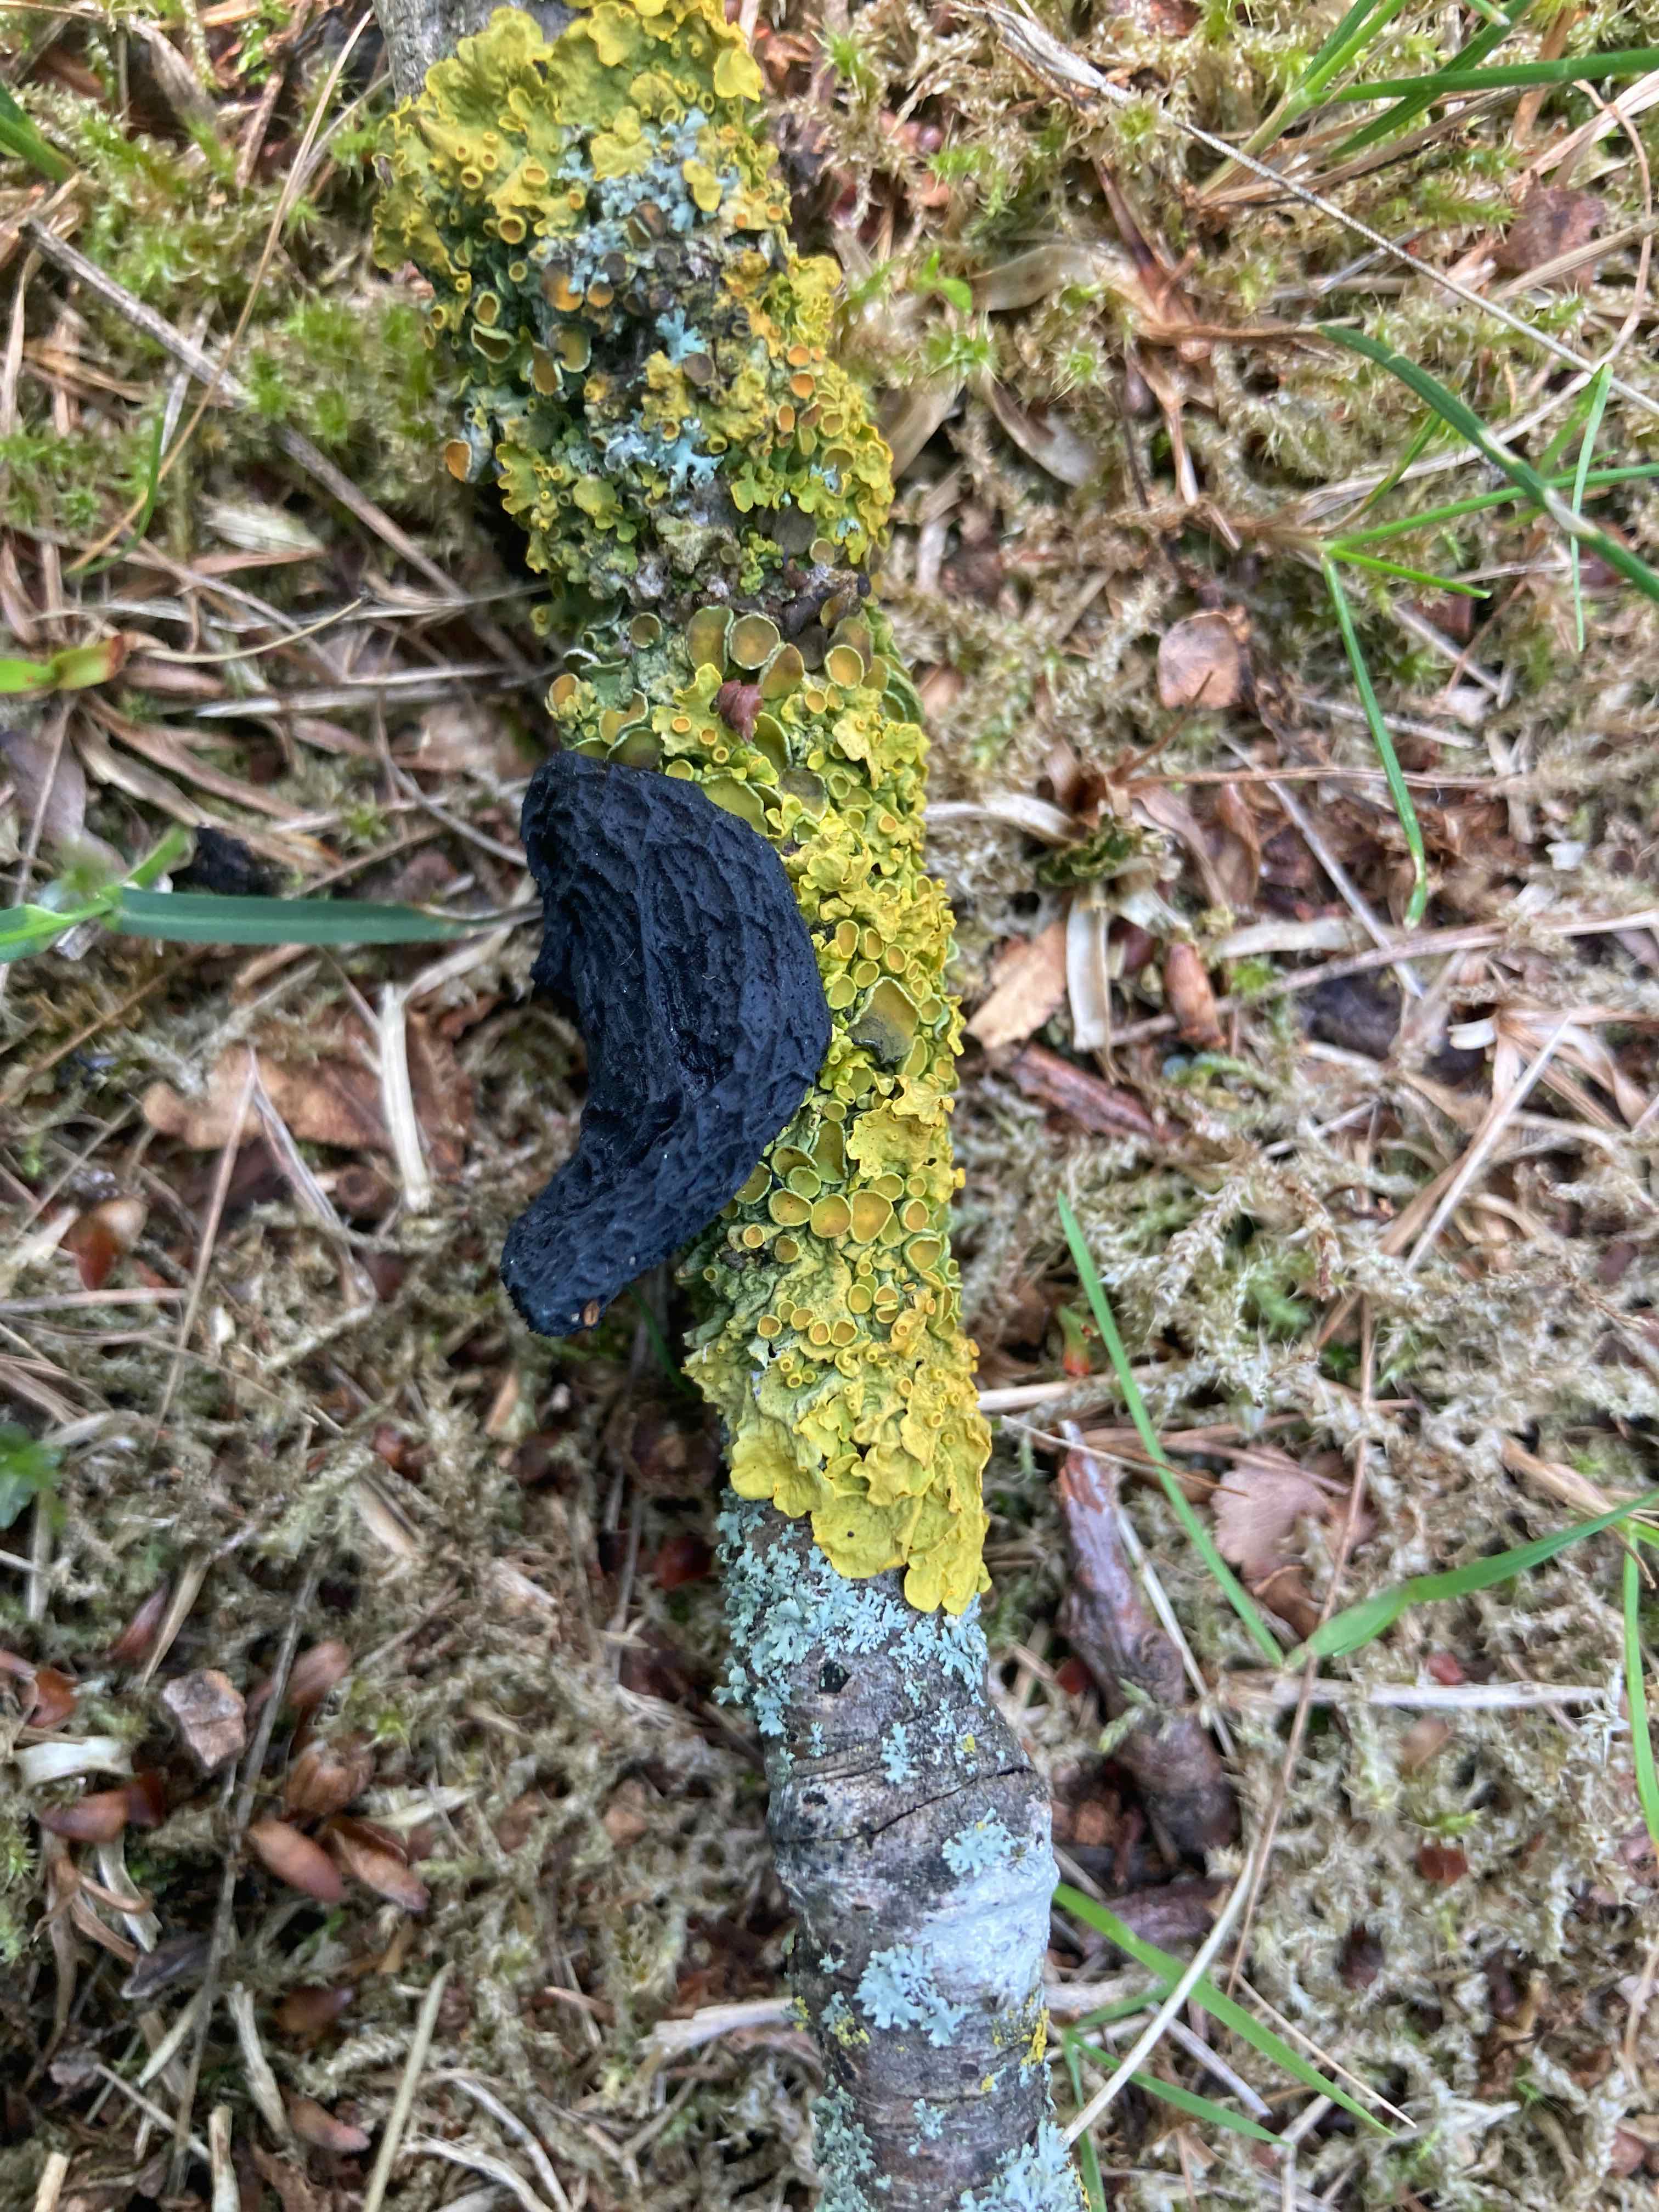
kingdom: Fungi
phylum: Basidiomycota
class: Agaricomycetes
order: Auriculariales
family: Auriculariaceae
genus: Exidia
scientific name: Exidia glandulosa
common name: ege-bævretop
